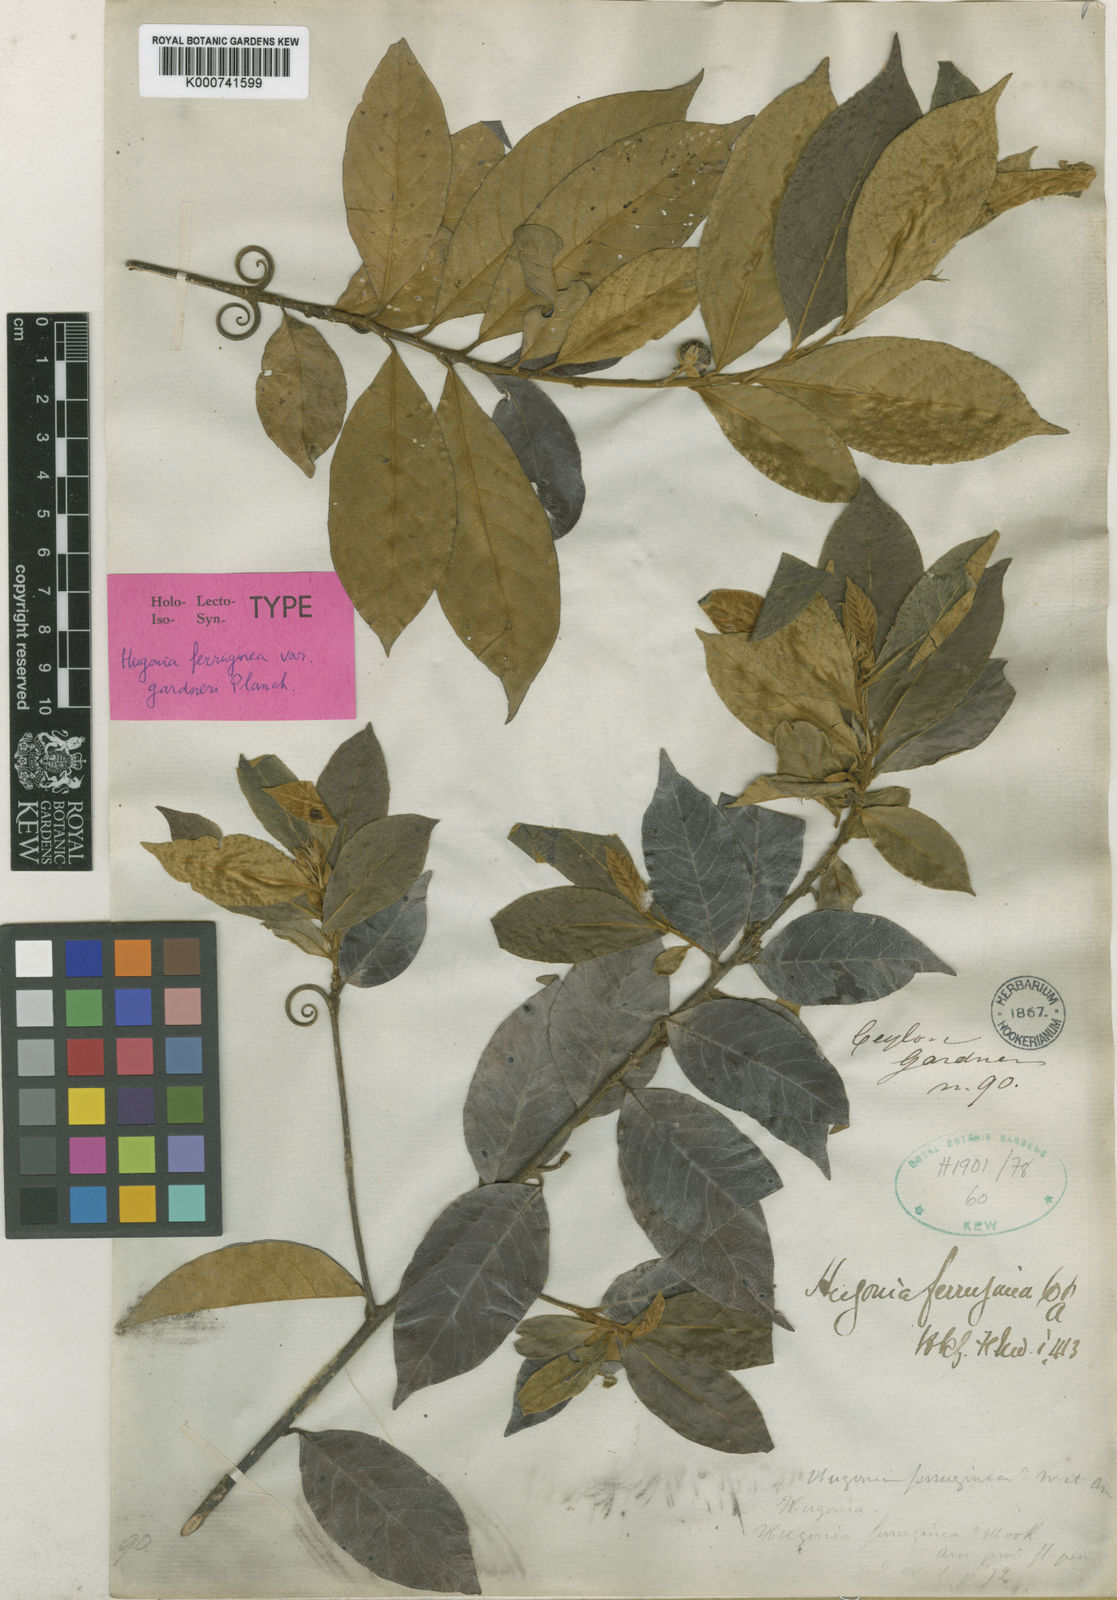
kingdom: Plantae
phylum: Tracheophyta
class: Magnoliopsida
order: Malpighiales
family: Linaceae
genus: Hugonia
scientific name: Hugonia ferruginea
